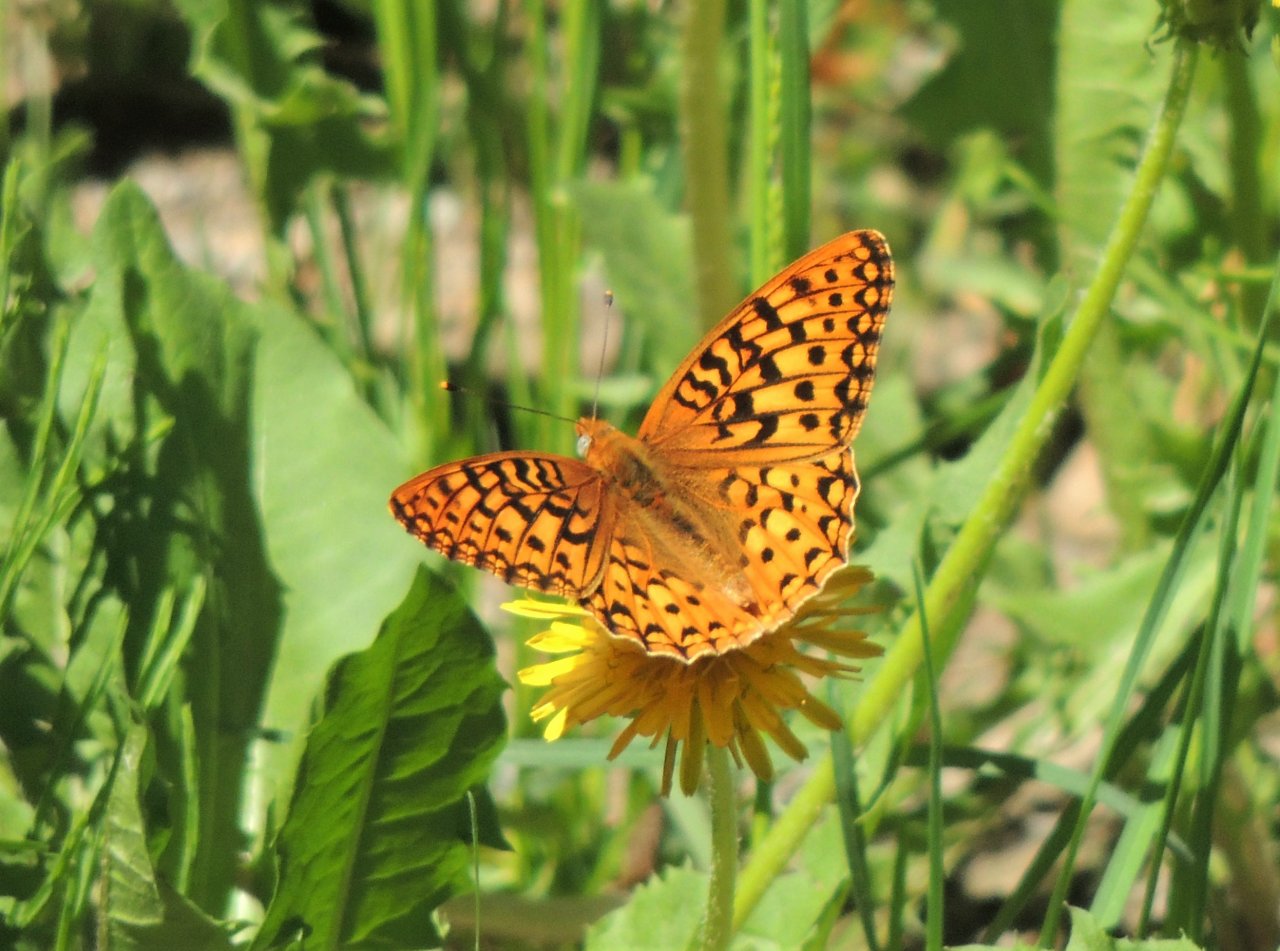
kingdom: Animalia
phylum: Arthropoda
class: Insecta
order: Lepidoptera
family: Nymphalidae
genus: Speyeria
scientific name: Speyeria zerene
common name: Zerene Fritillary
